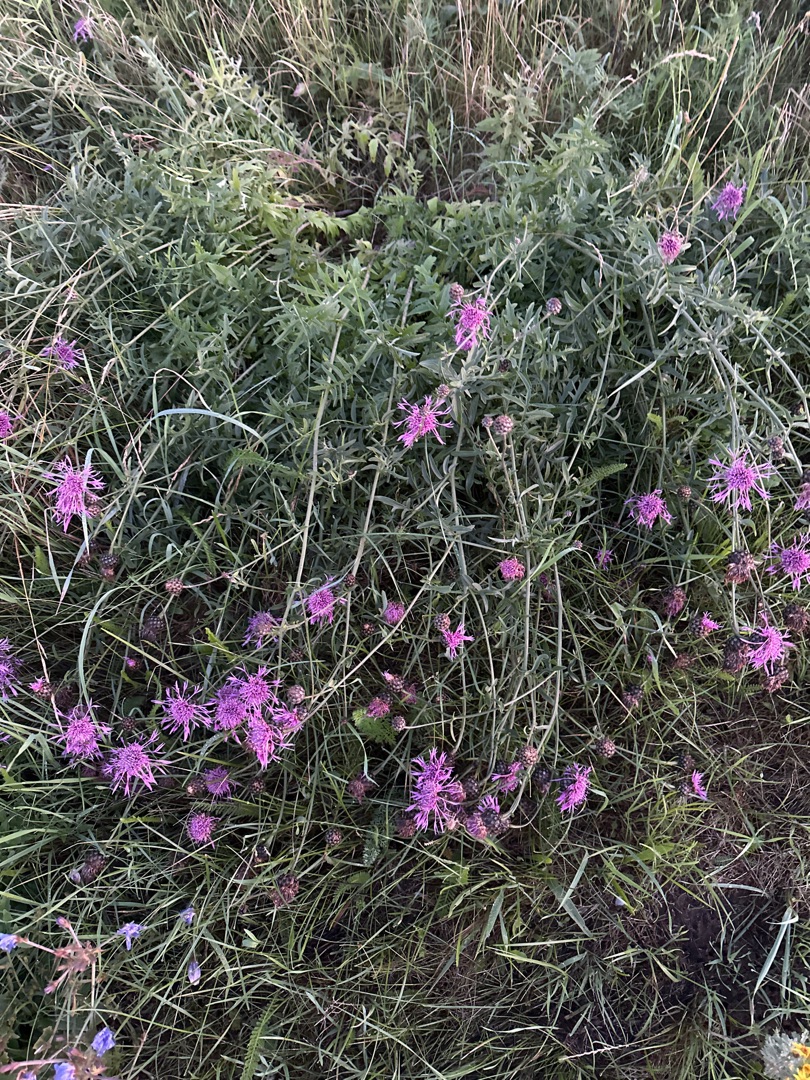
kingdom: Plantae
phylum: Tracheophyta
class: Magnoliopsida
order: Asterales
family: Asteraceae
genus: Centaurea
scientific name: Centaurea scabiosa
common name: Stor knopurt
